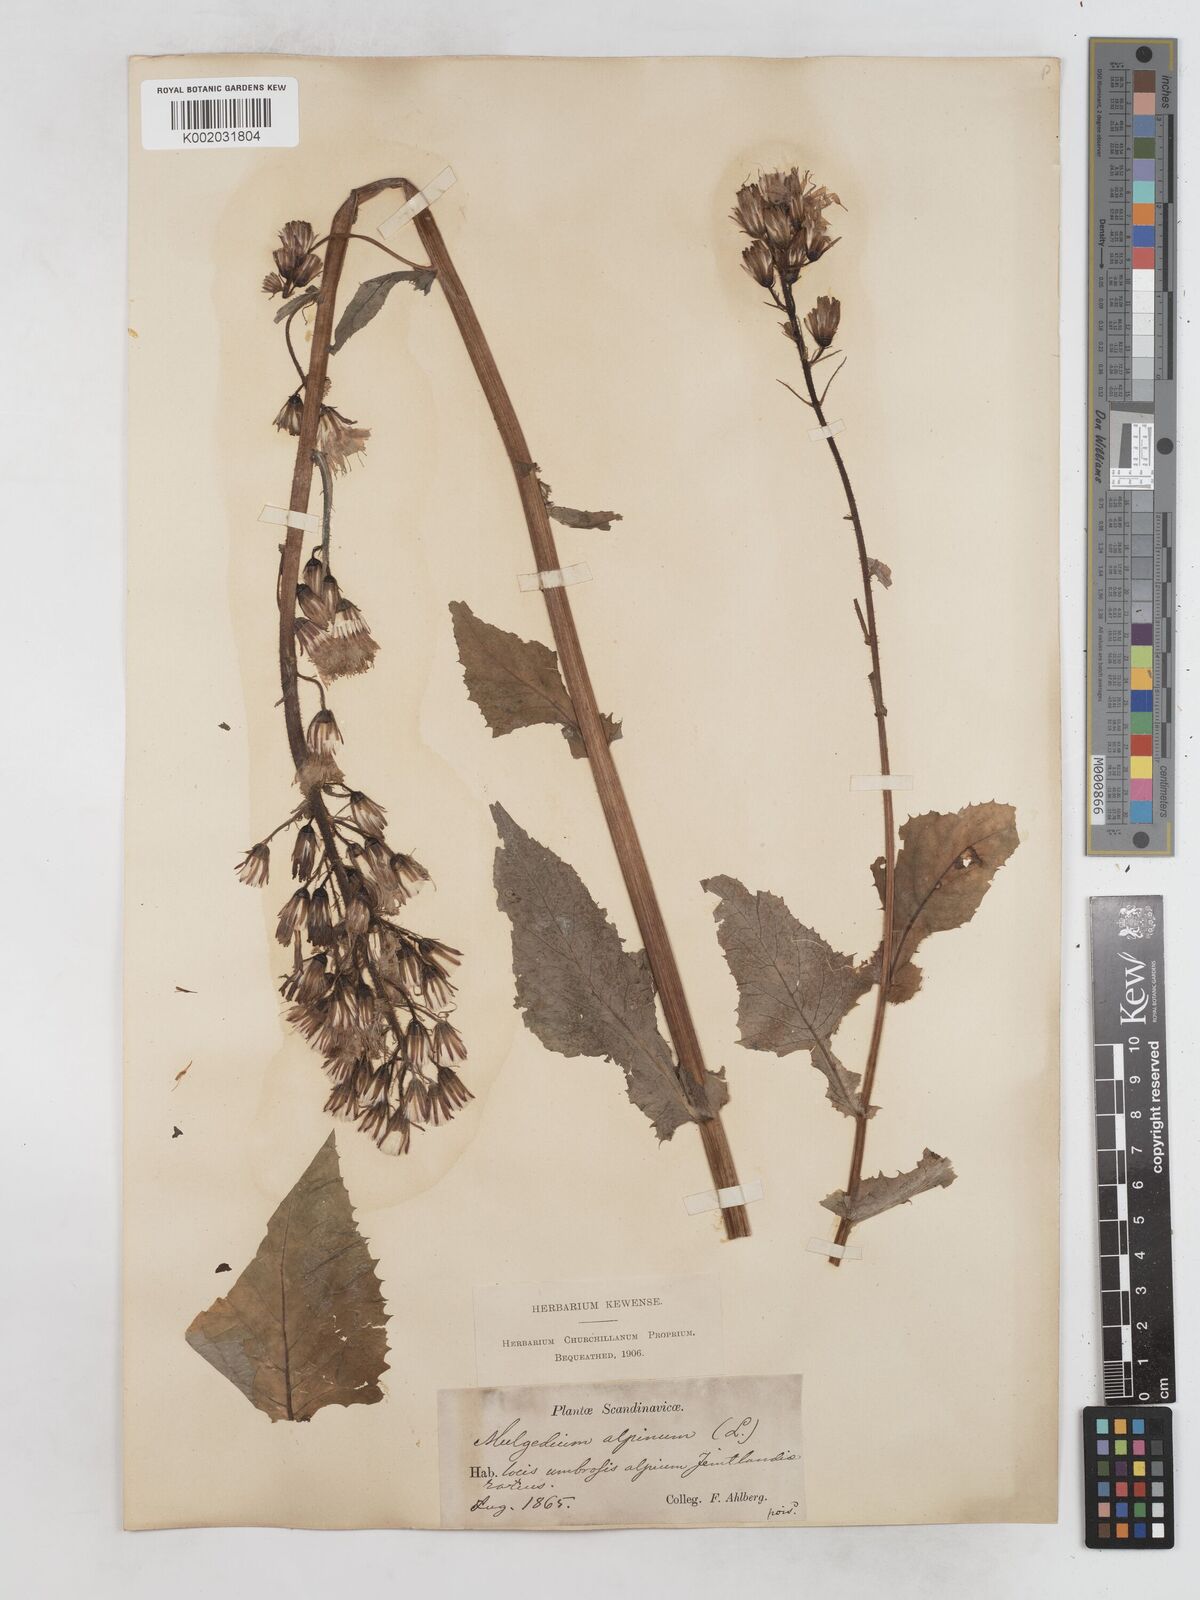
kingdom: Plantae
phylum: Tracheophyta
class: Magnoliopsida
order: Asterales
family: Asteraceae
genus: Cicerbita
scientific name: Cicerbita alpina
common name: Alpine blue-sow-thistle
